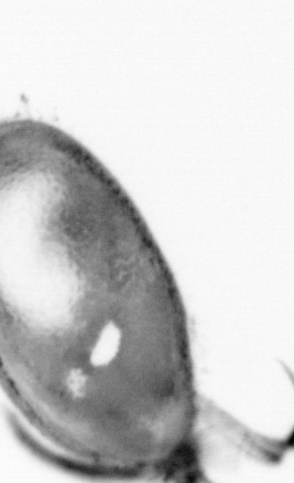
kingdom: Animalia
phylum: Arthropoda
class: Copepoda
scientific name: Copepoda
